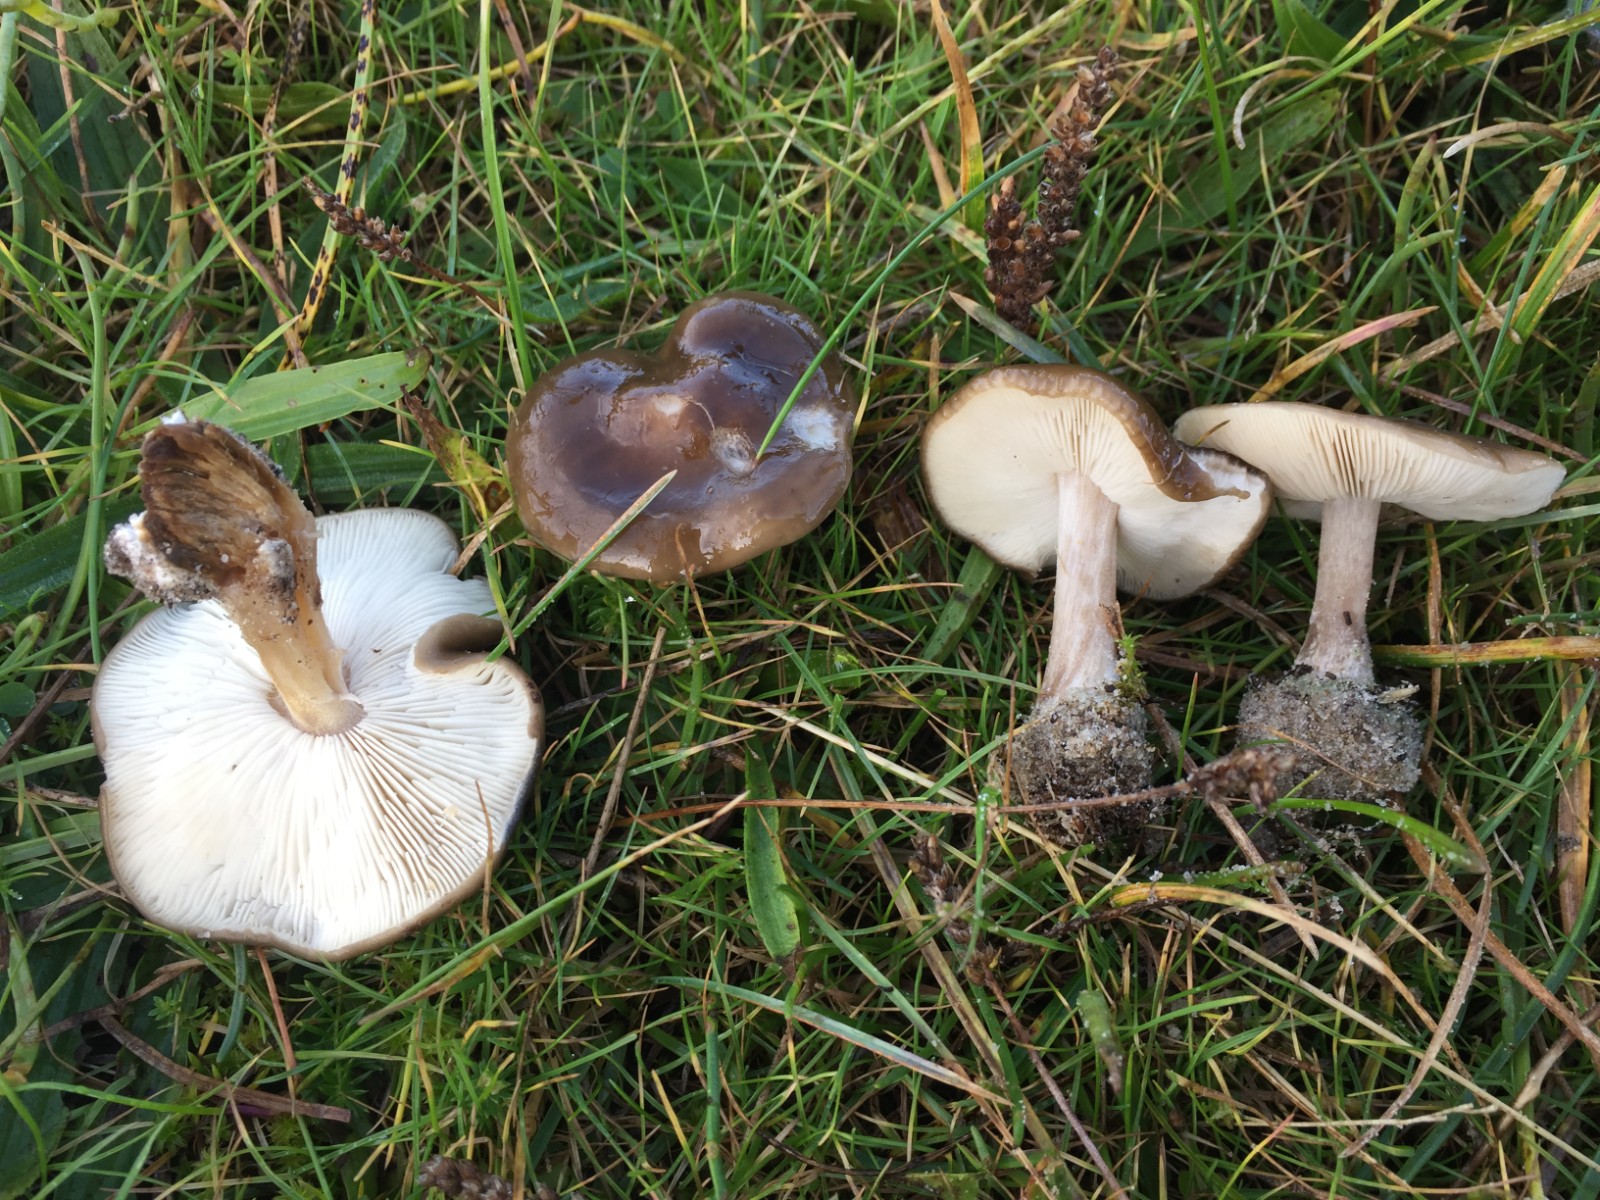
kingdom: Fungi
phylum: Basidiomycota
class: Agaricomycetes
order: Agaricales
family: Tricholomataceae
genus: Melanoleuca
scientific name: Melanoleuca polioleuca
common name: hvidbladet munkehat
